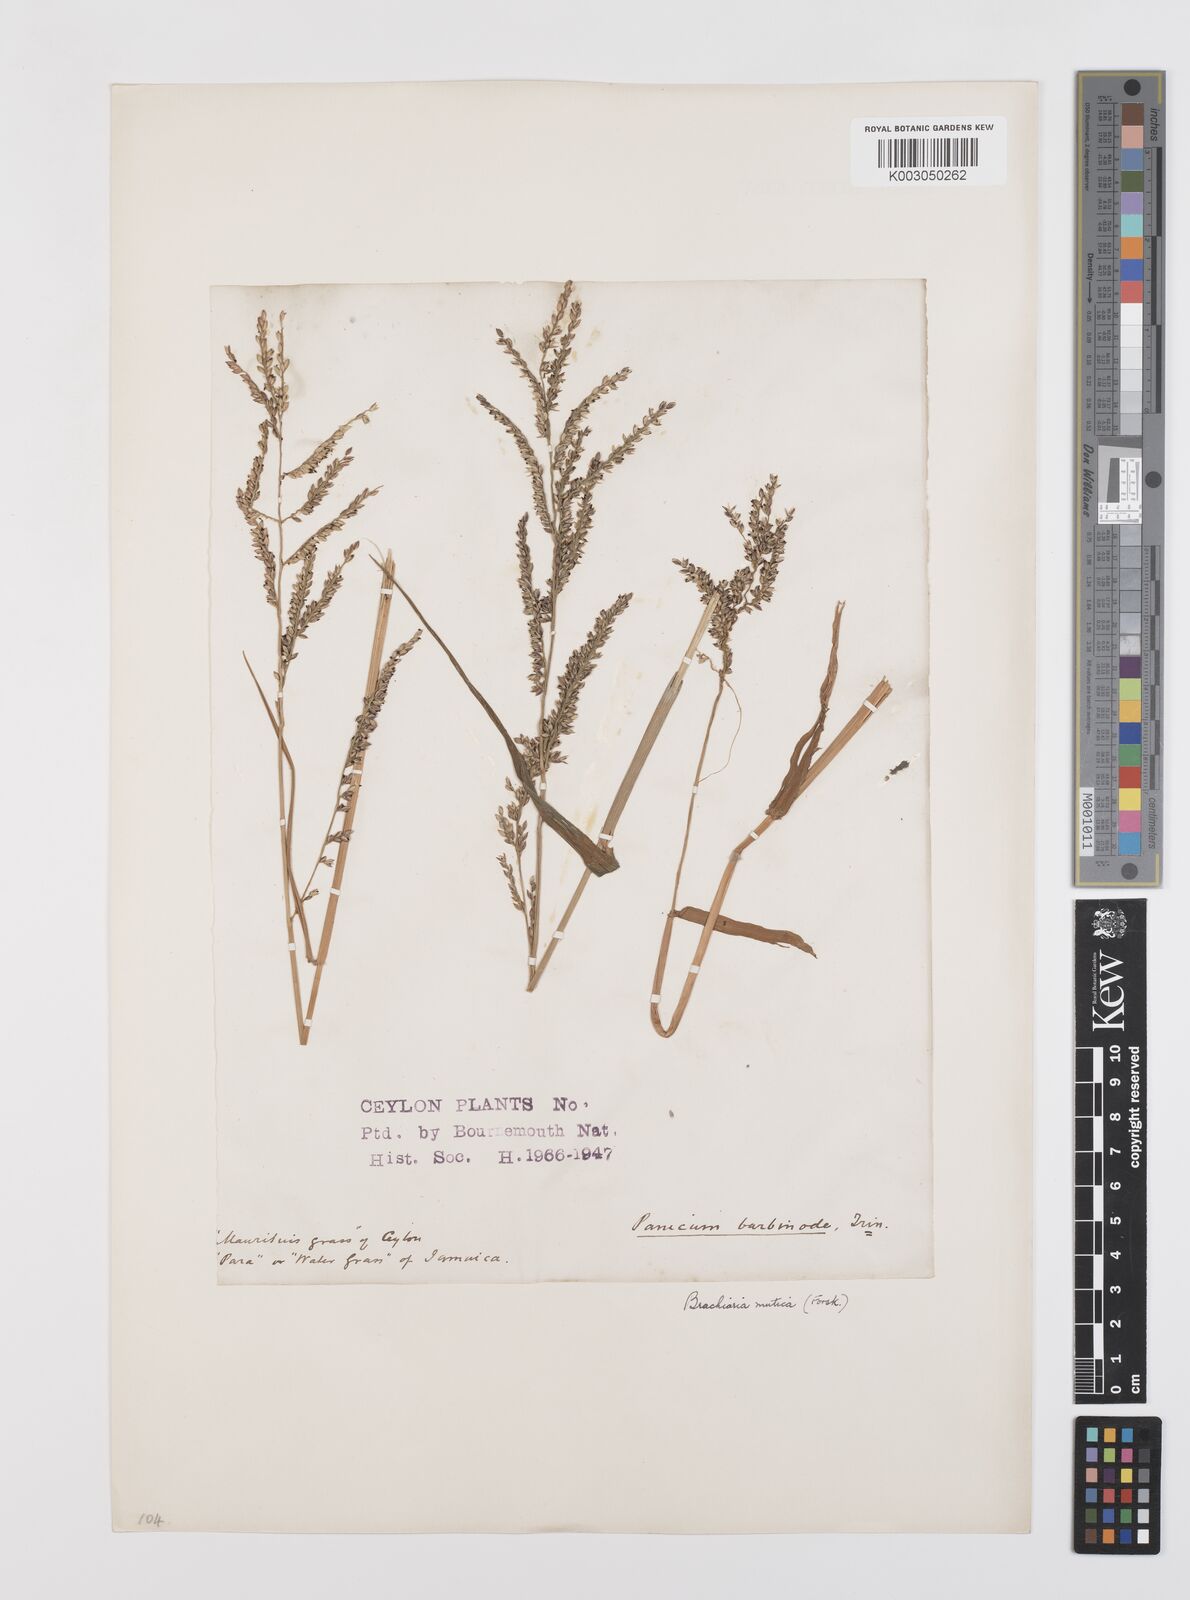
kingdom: Plantae
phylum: Tracheophyta
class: Liliopsida
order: Poales
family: Poaceae
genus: Urochloa
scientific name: Urochloa mutica
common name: Para grass
